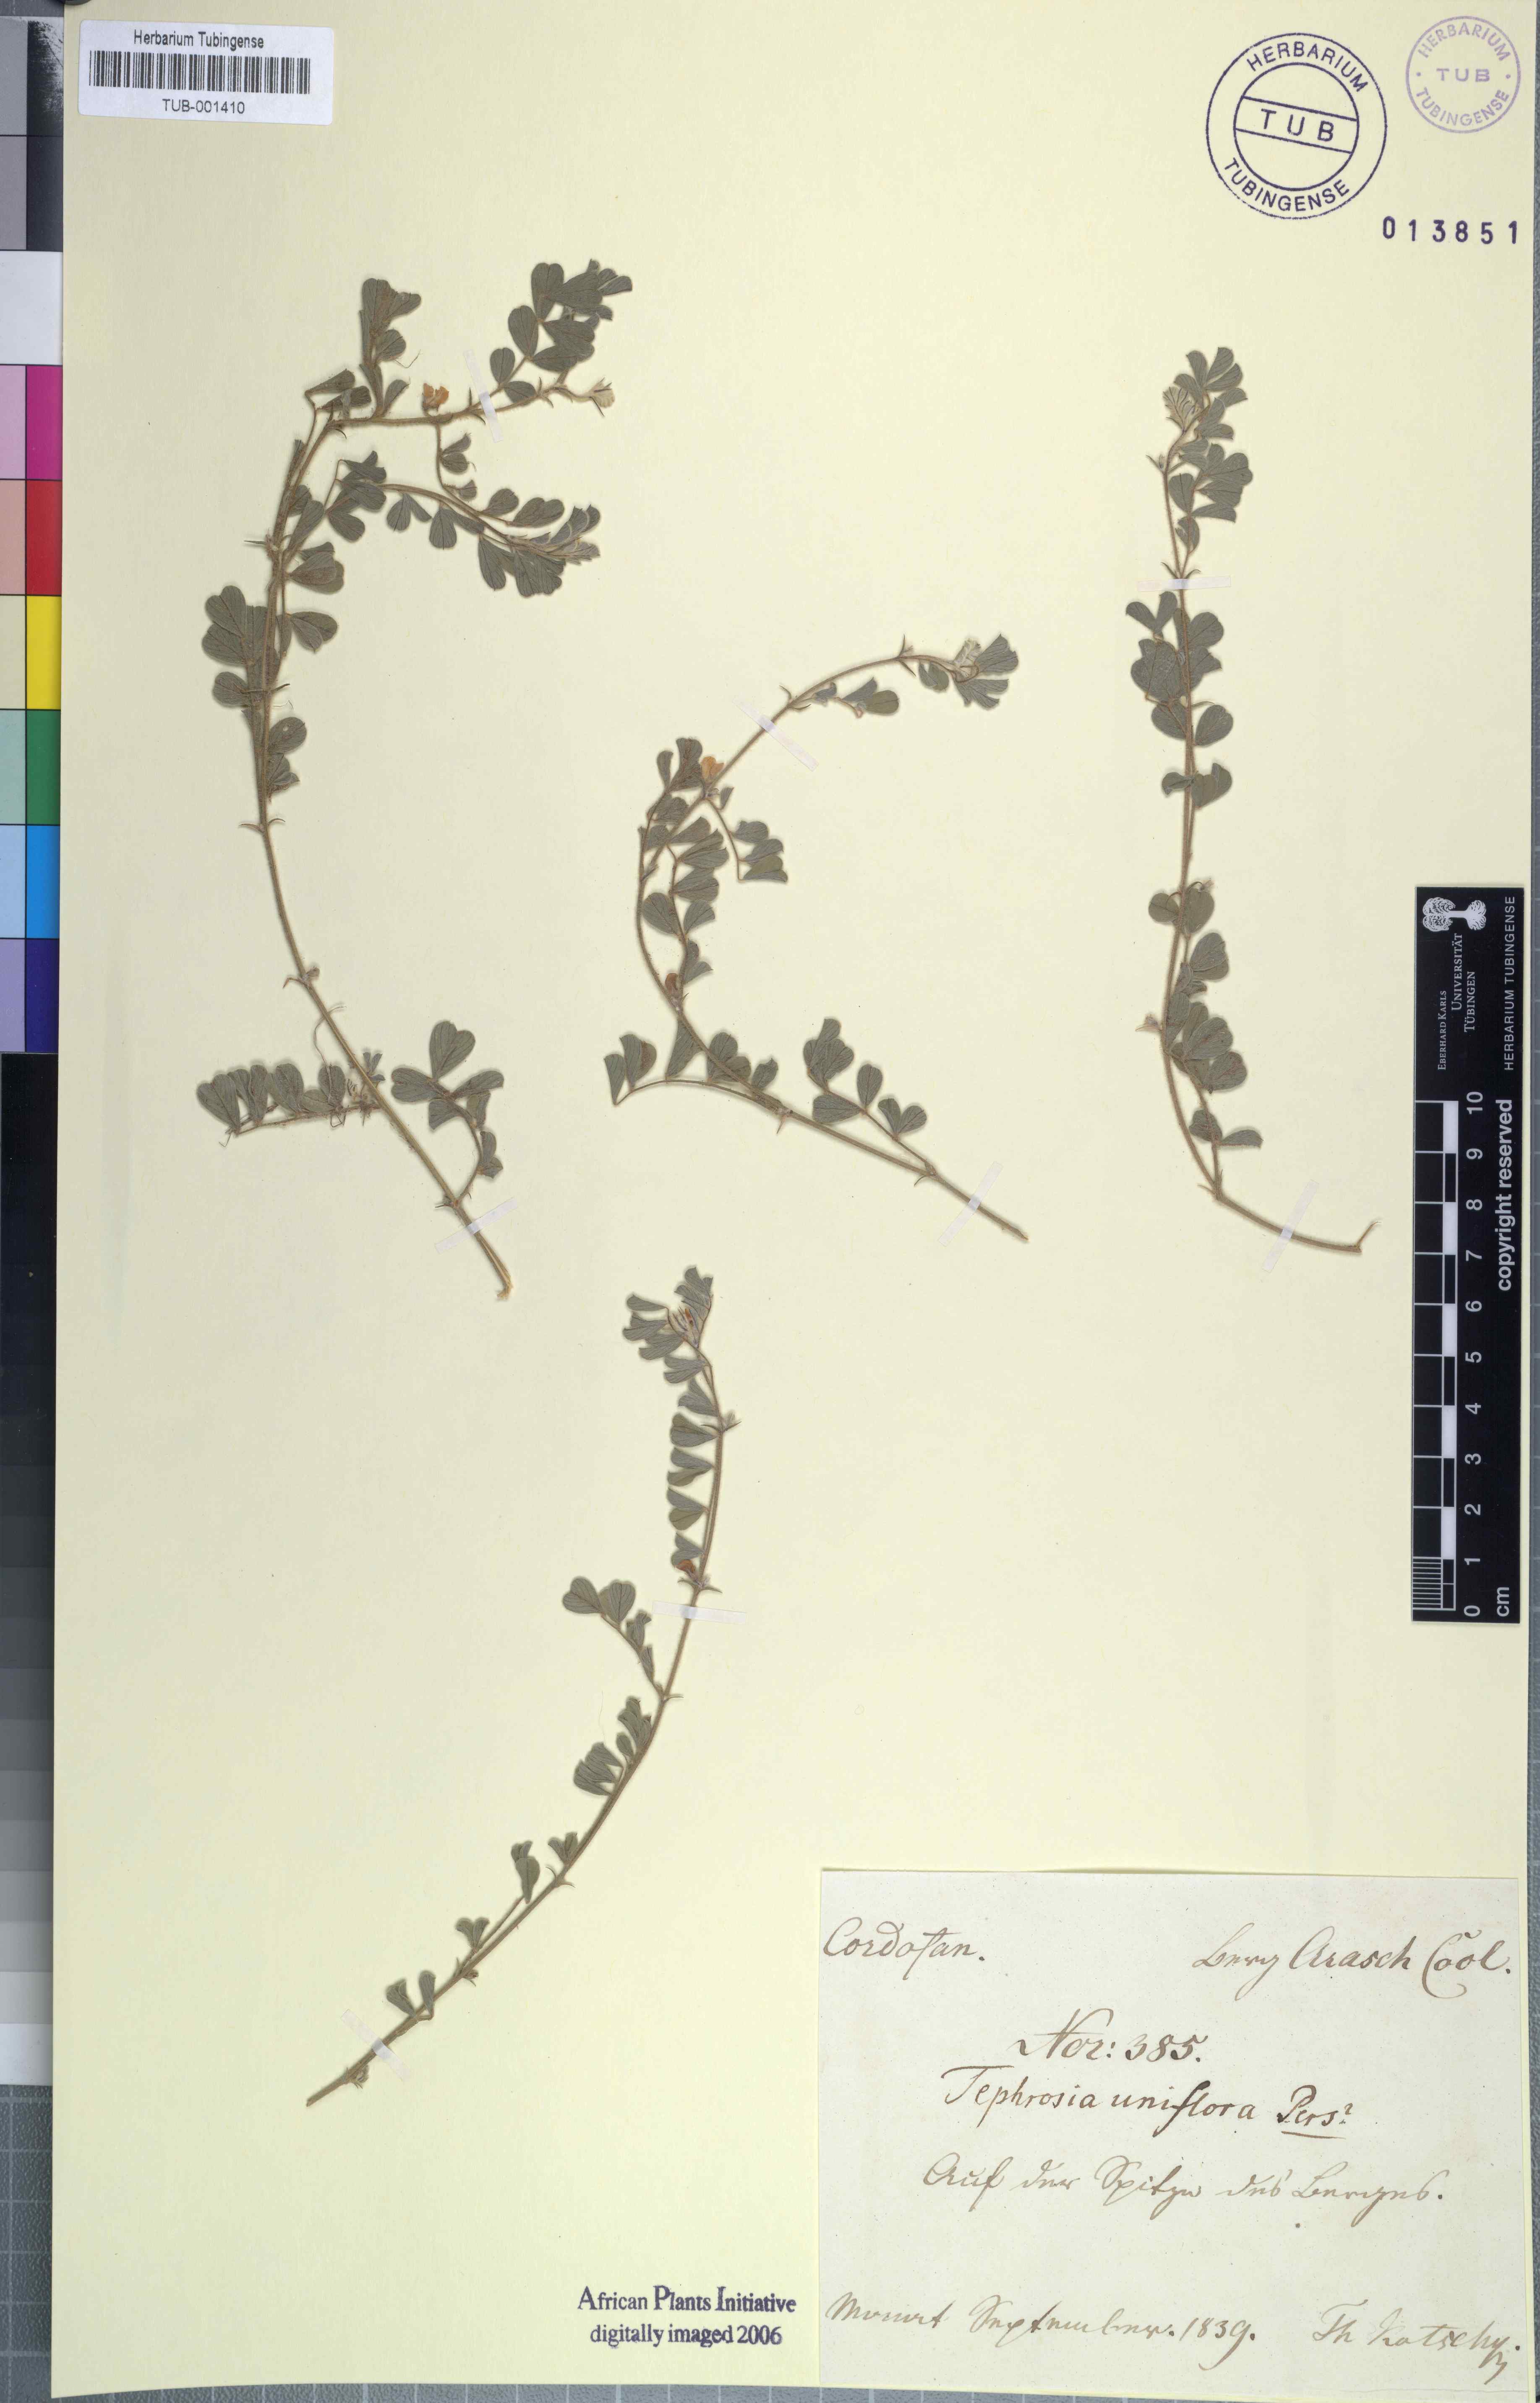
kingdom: Plantae
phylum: Tracheophyta
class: Magnoliopsida
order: Fabales
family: Fabaceae
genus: Tephrosia
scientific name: Tephrosia uniflora
